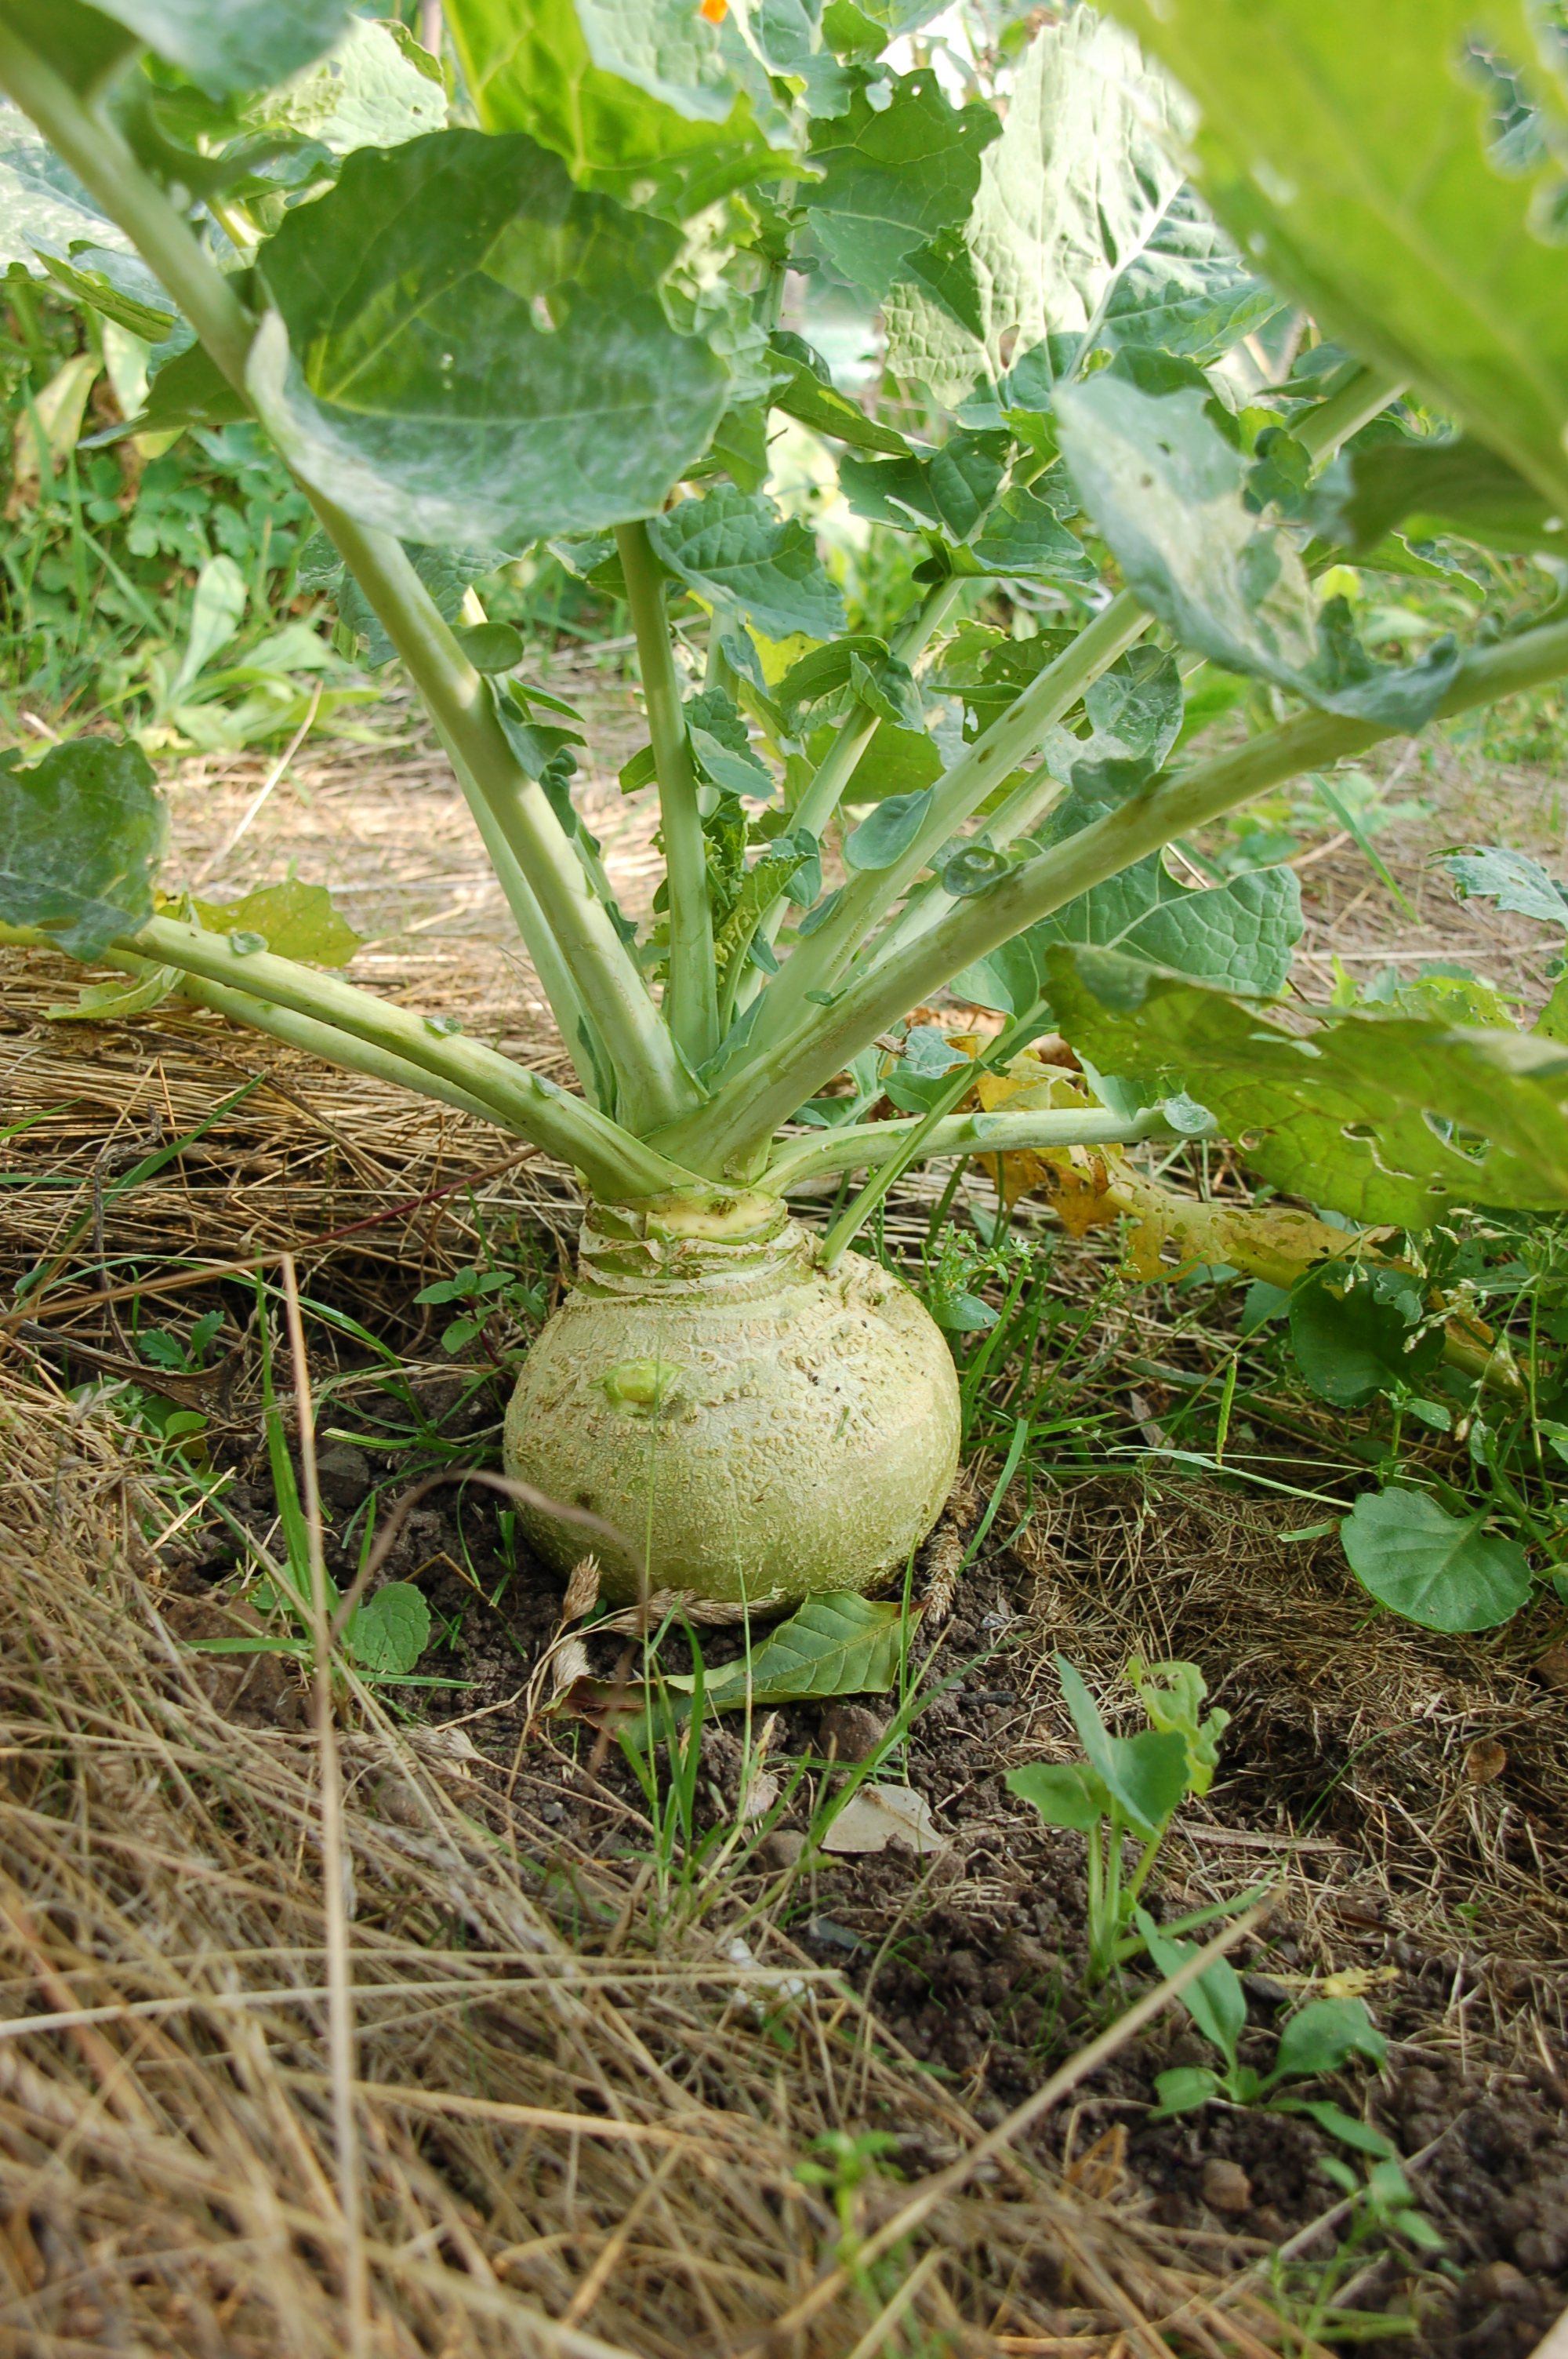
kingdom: Plantae
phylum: Tracheophyta
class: Magnoliopsida
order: Brassicales
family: Brassicaceae
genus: Brassica
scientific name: Brassica napus
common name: Rape
